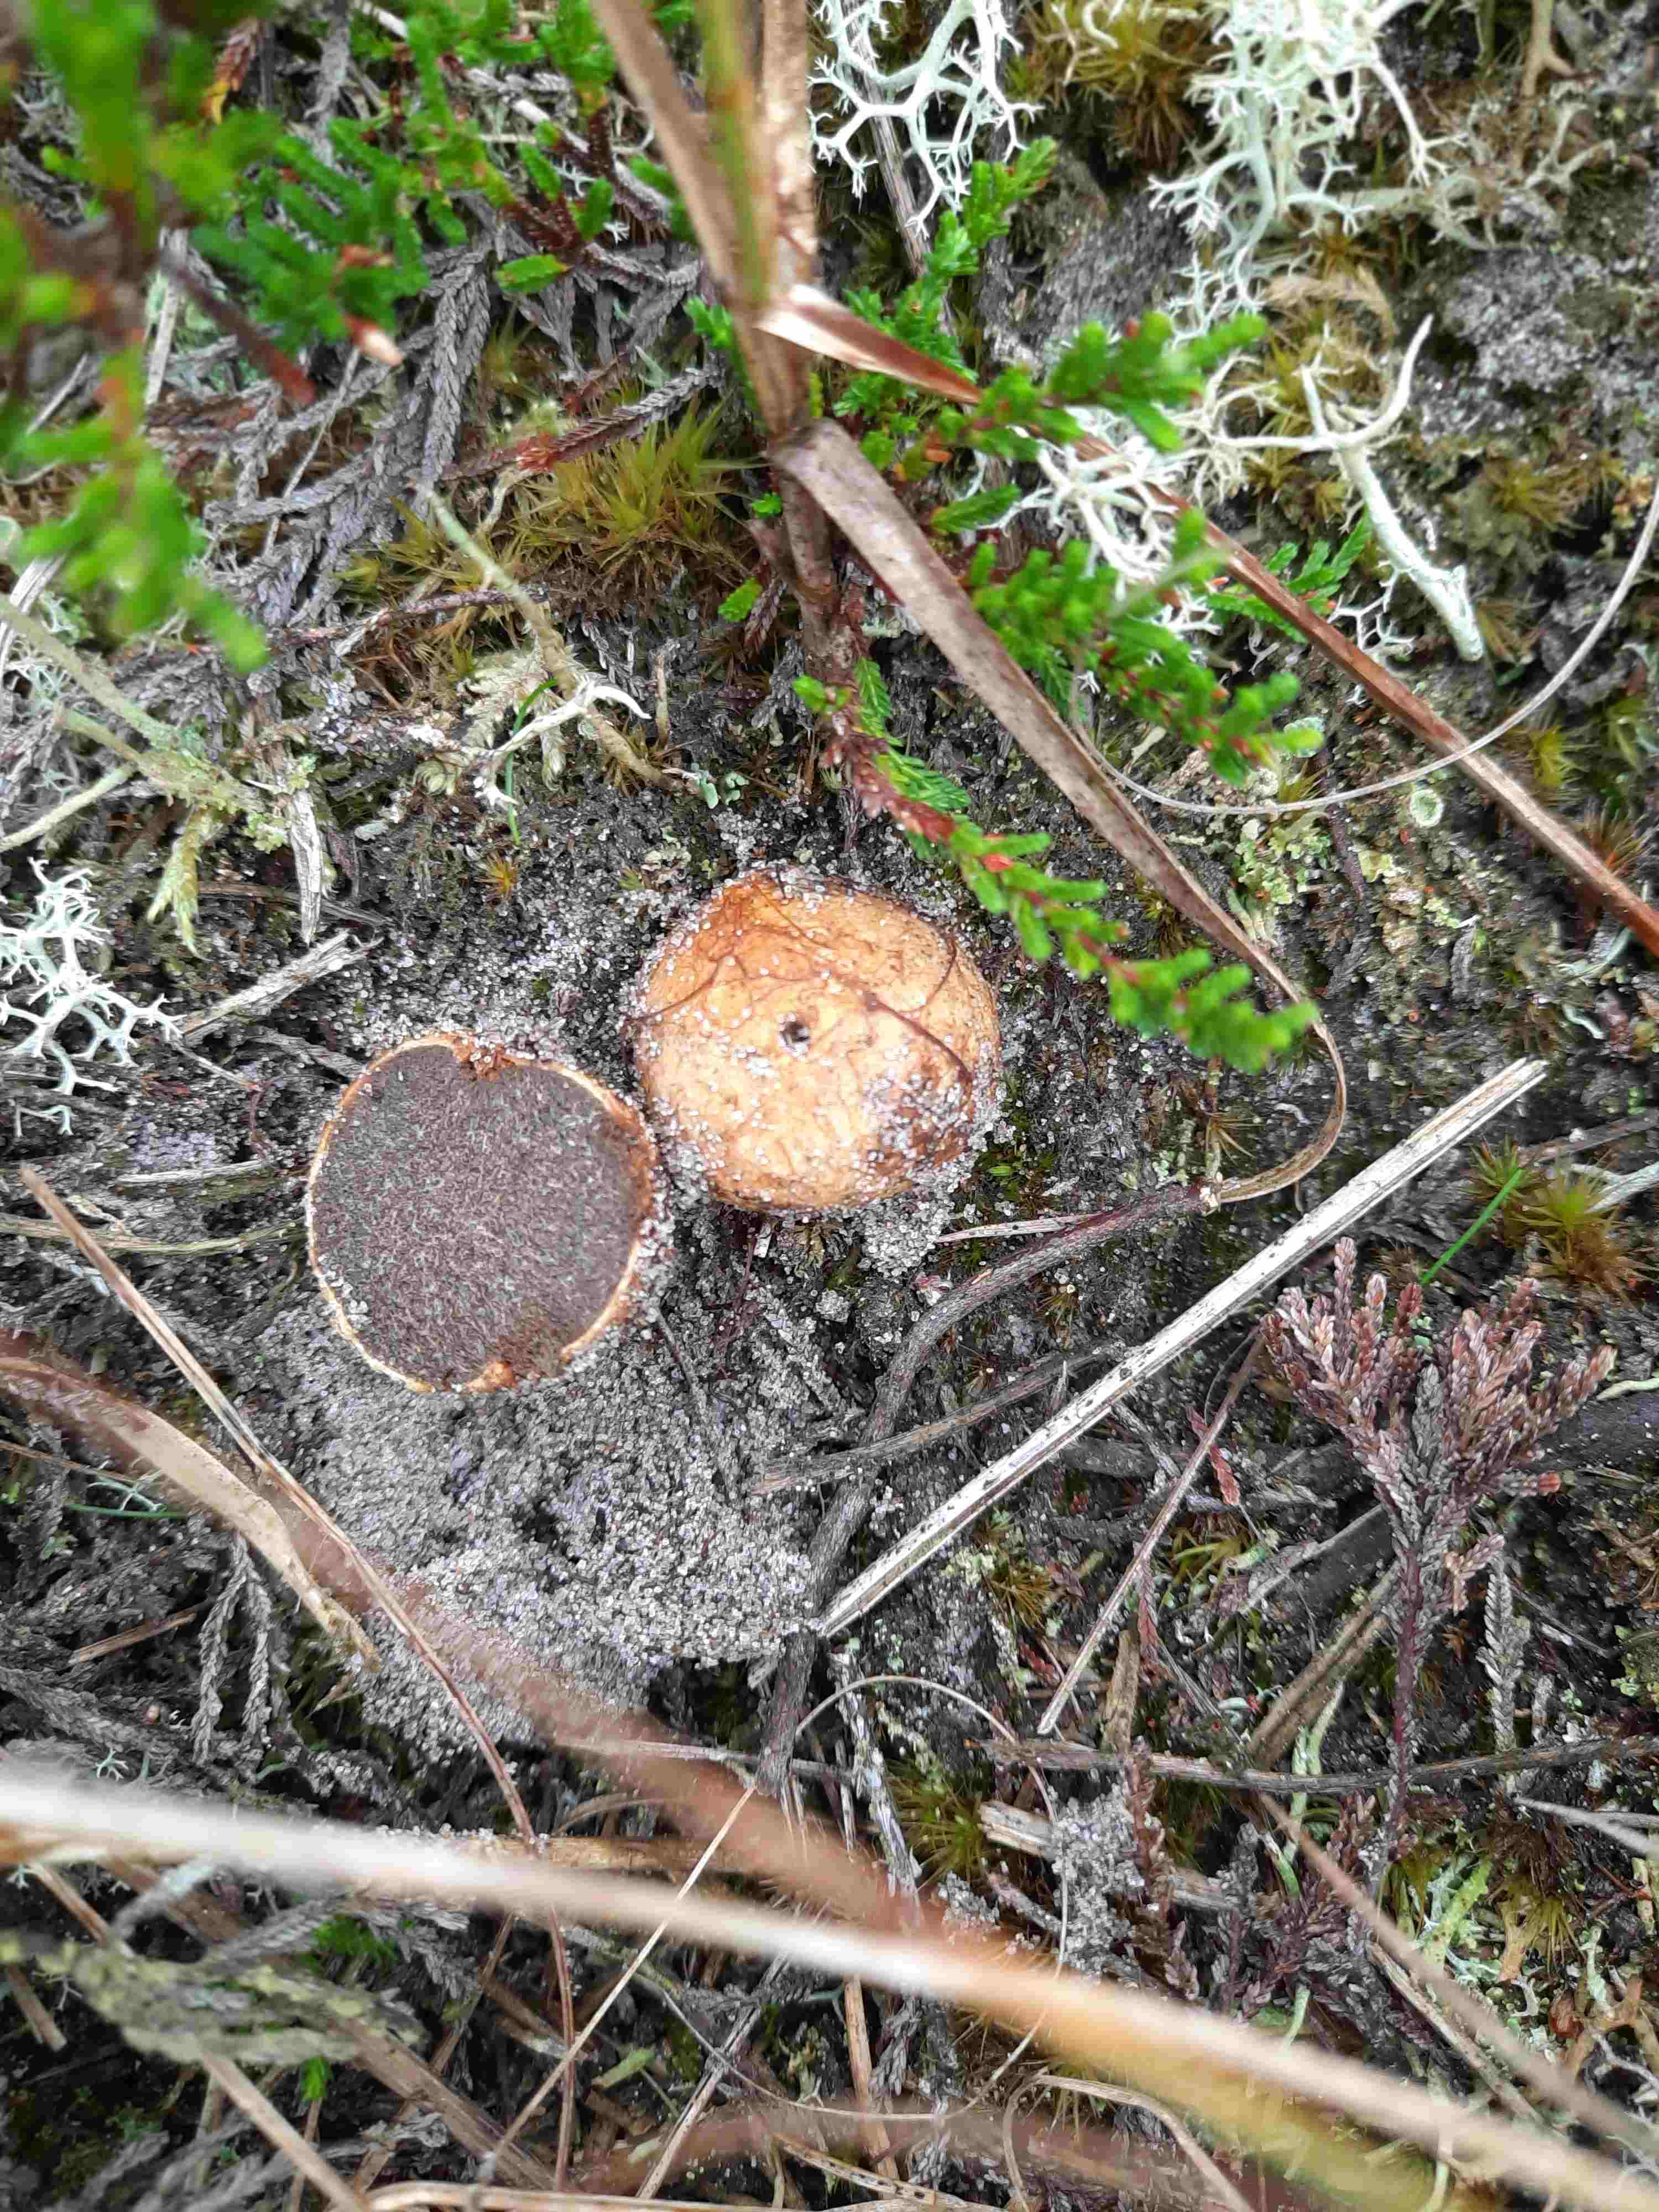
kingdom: Fungi
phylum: Basidiomycota
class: Agaricomycetes
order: Boletales
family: Rhizopogonaceae
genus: Rhizopogon
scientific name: Rhizopogon obtextus
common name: gul skægtrøffel
